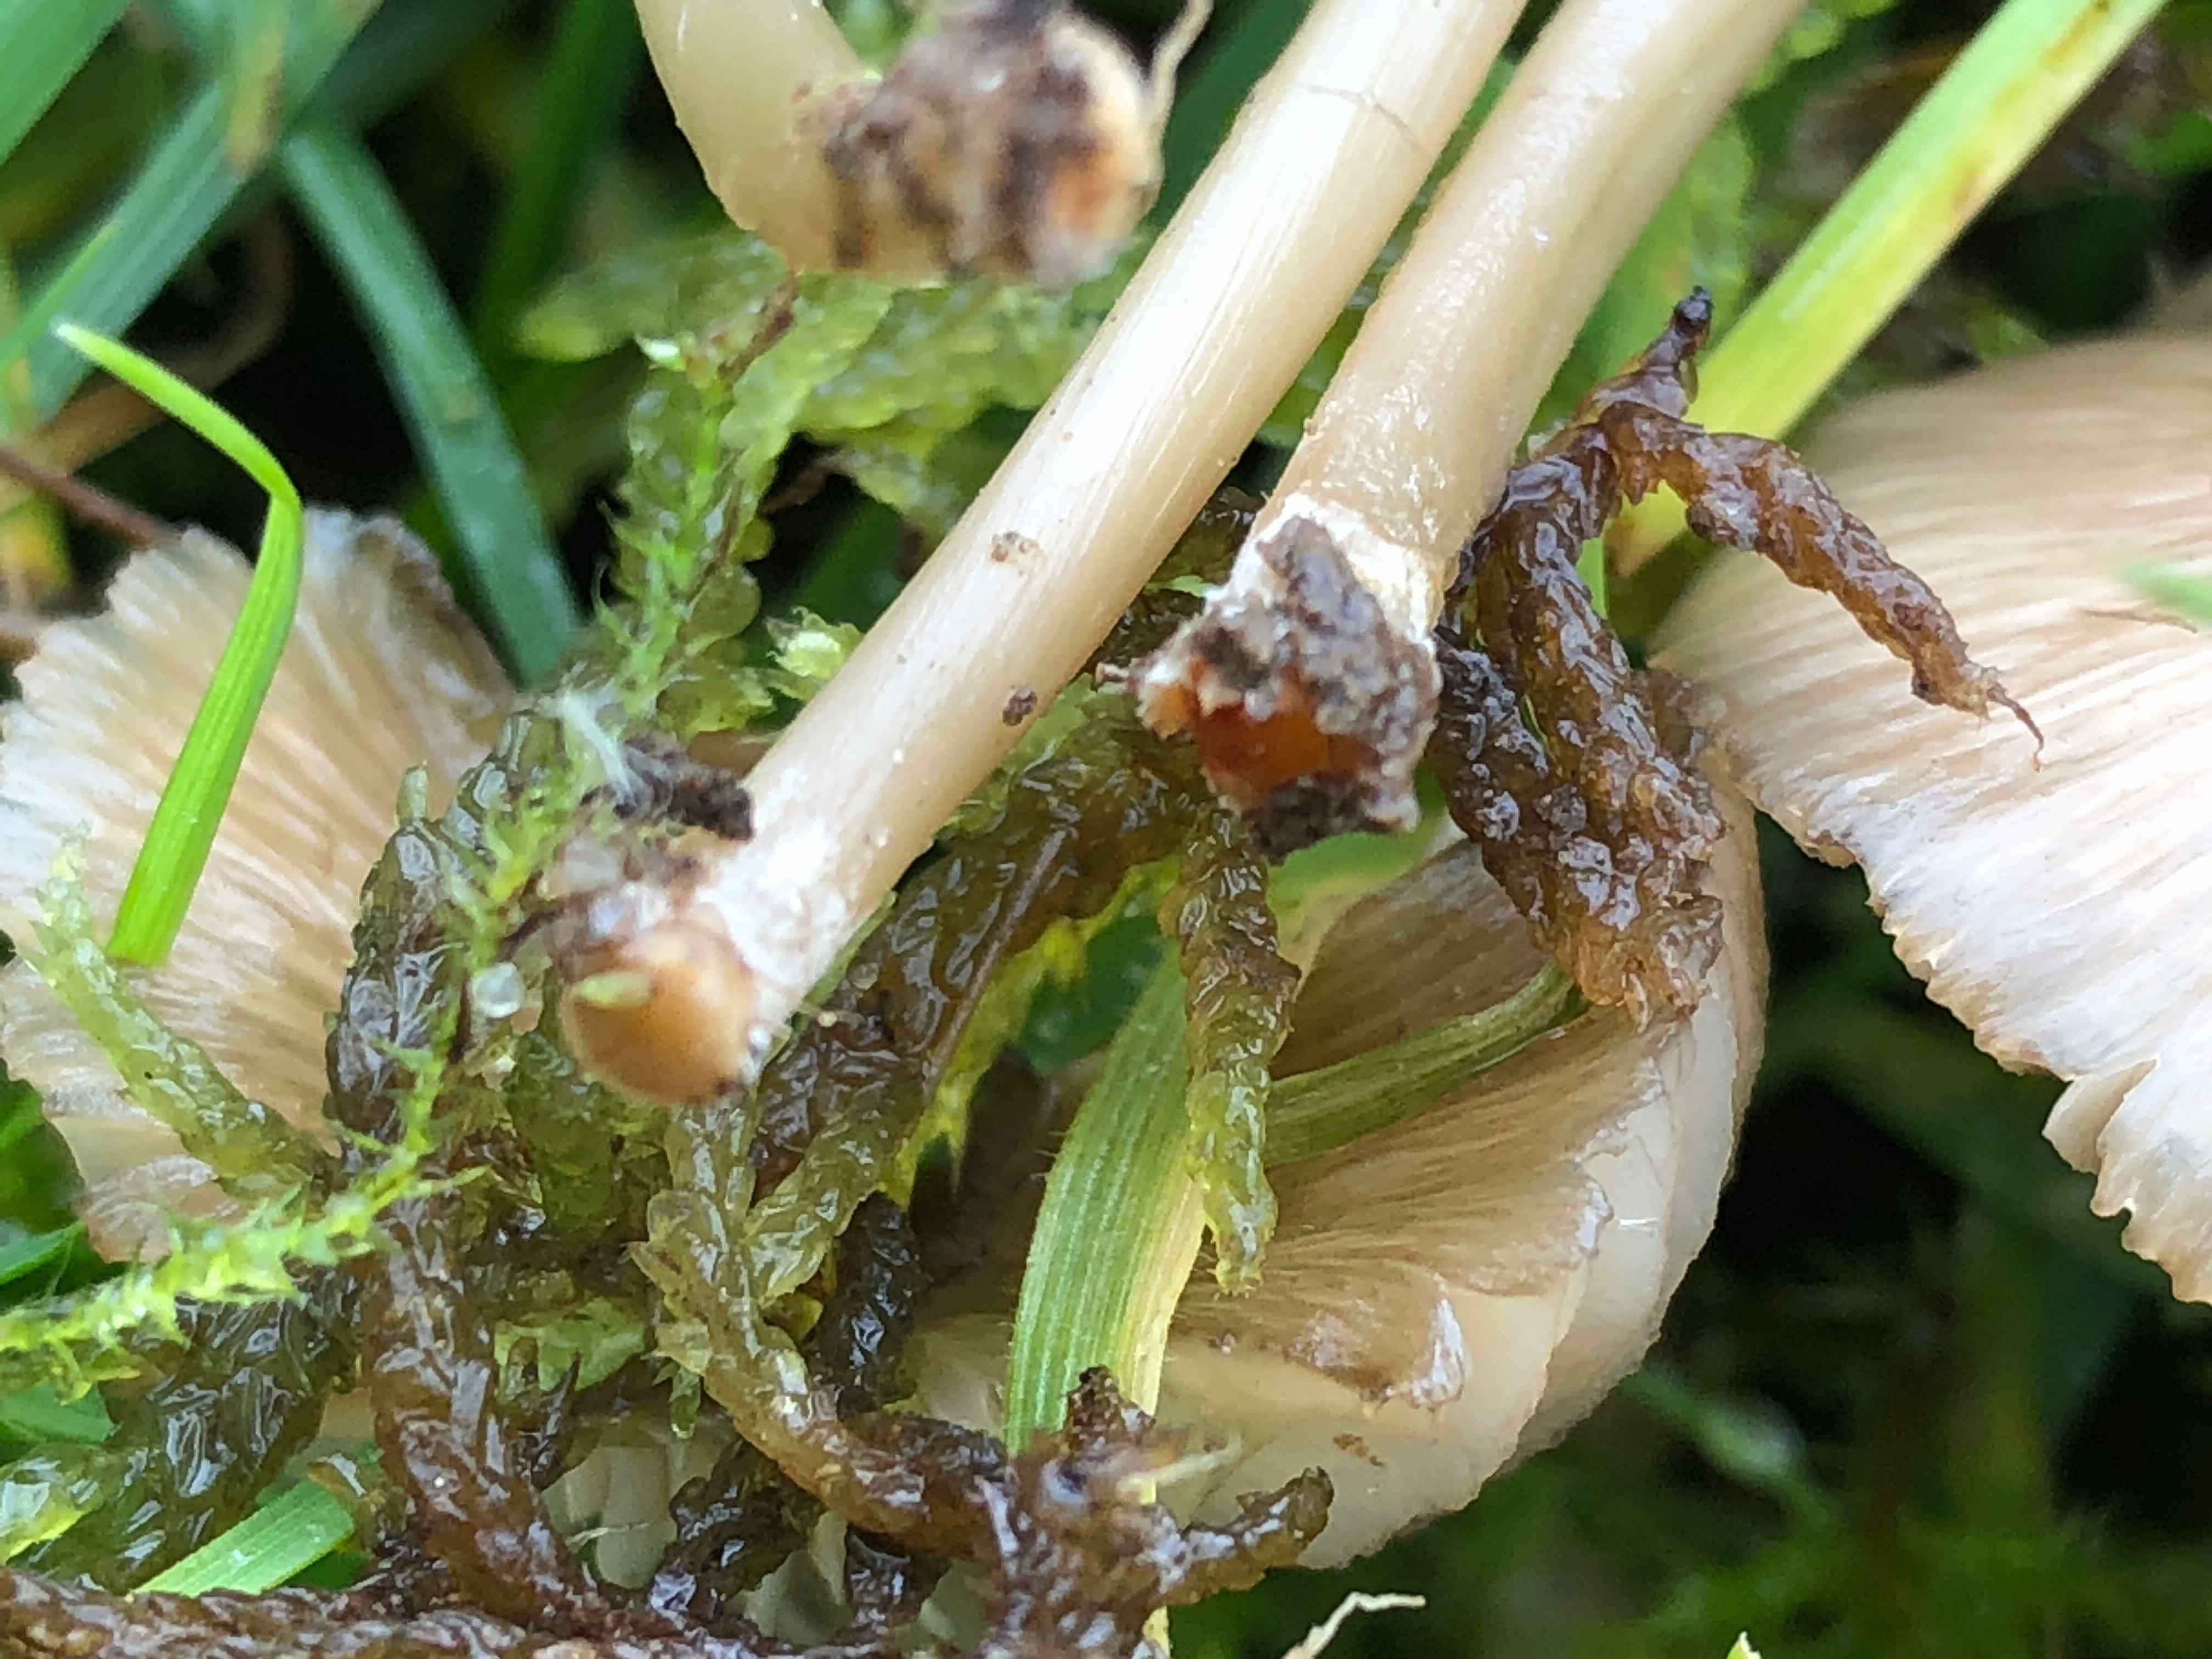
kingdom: Fungi
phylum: Basidiomycota
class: Agaricomycetes
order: Agaricales
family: Entolomataceae
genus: Entoloma
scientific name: Entoloma exile
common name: rødplettet rødblad
